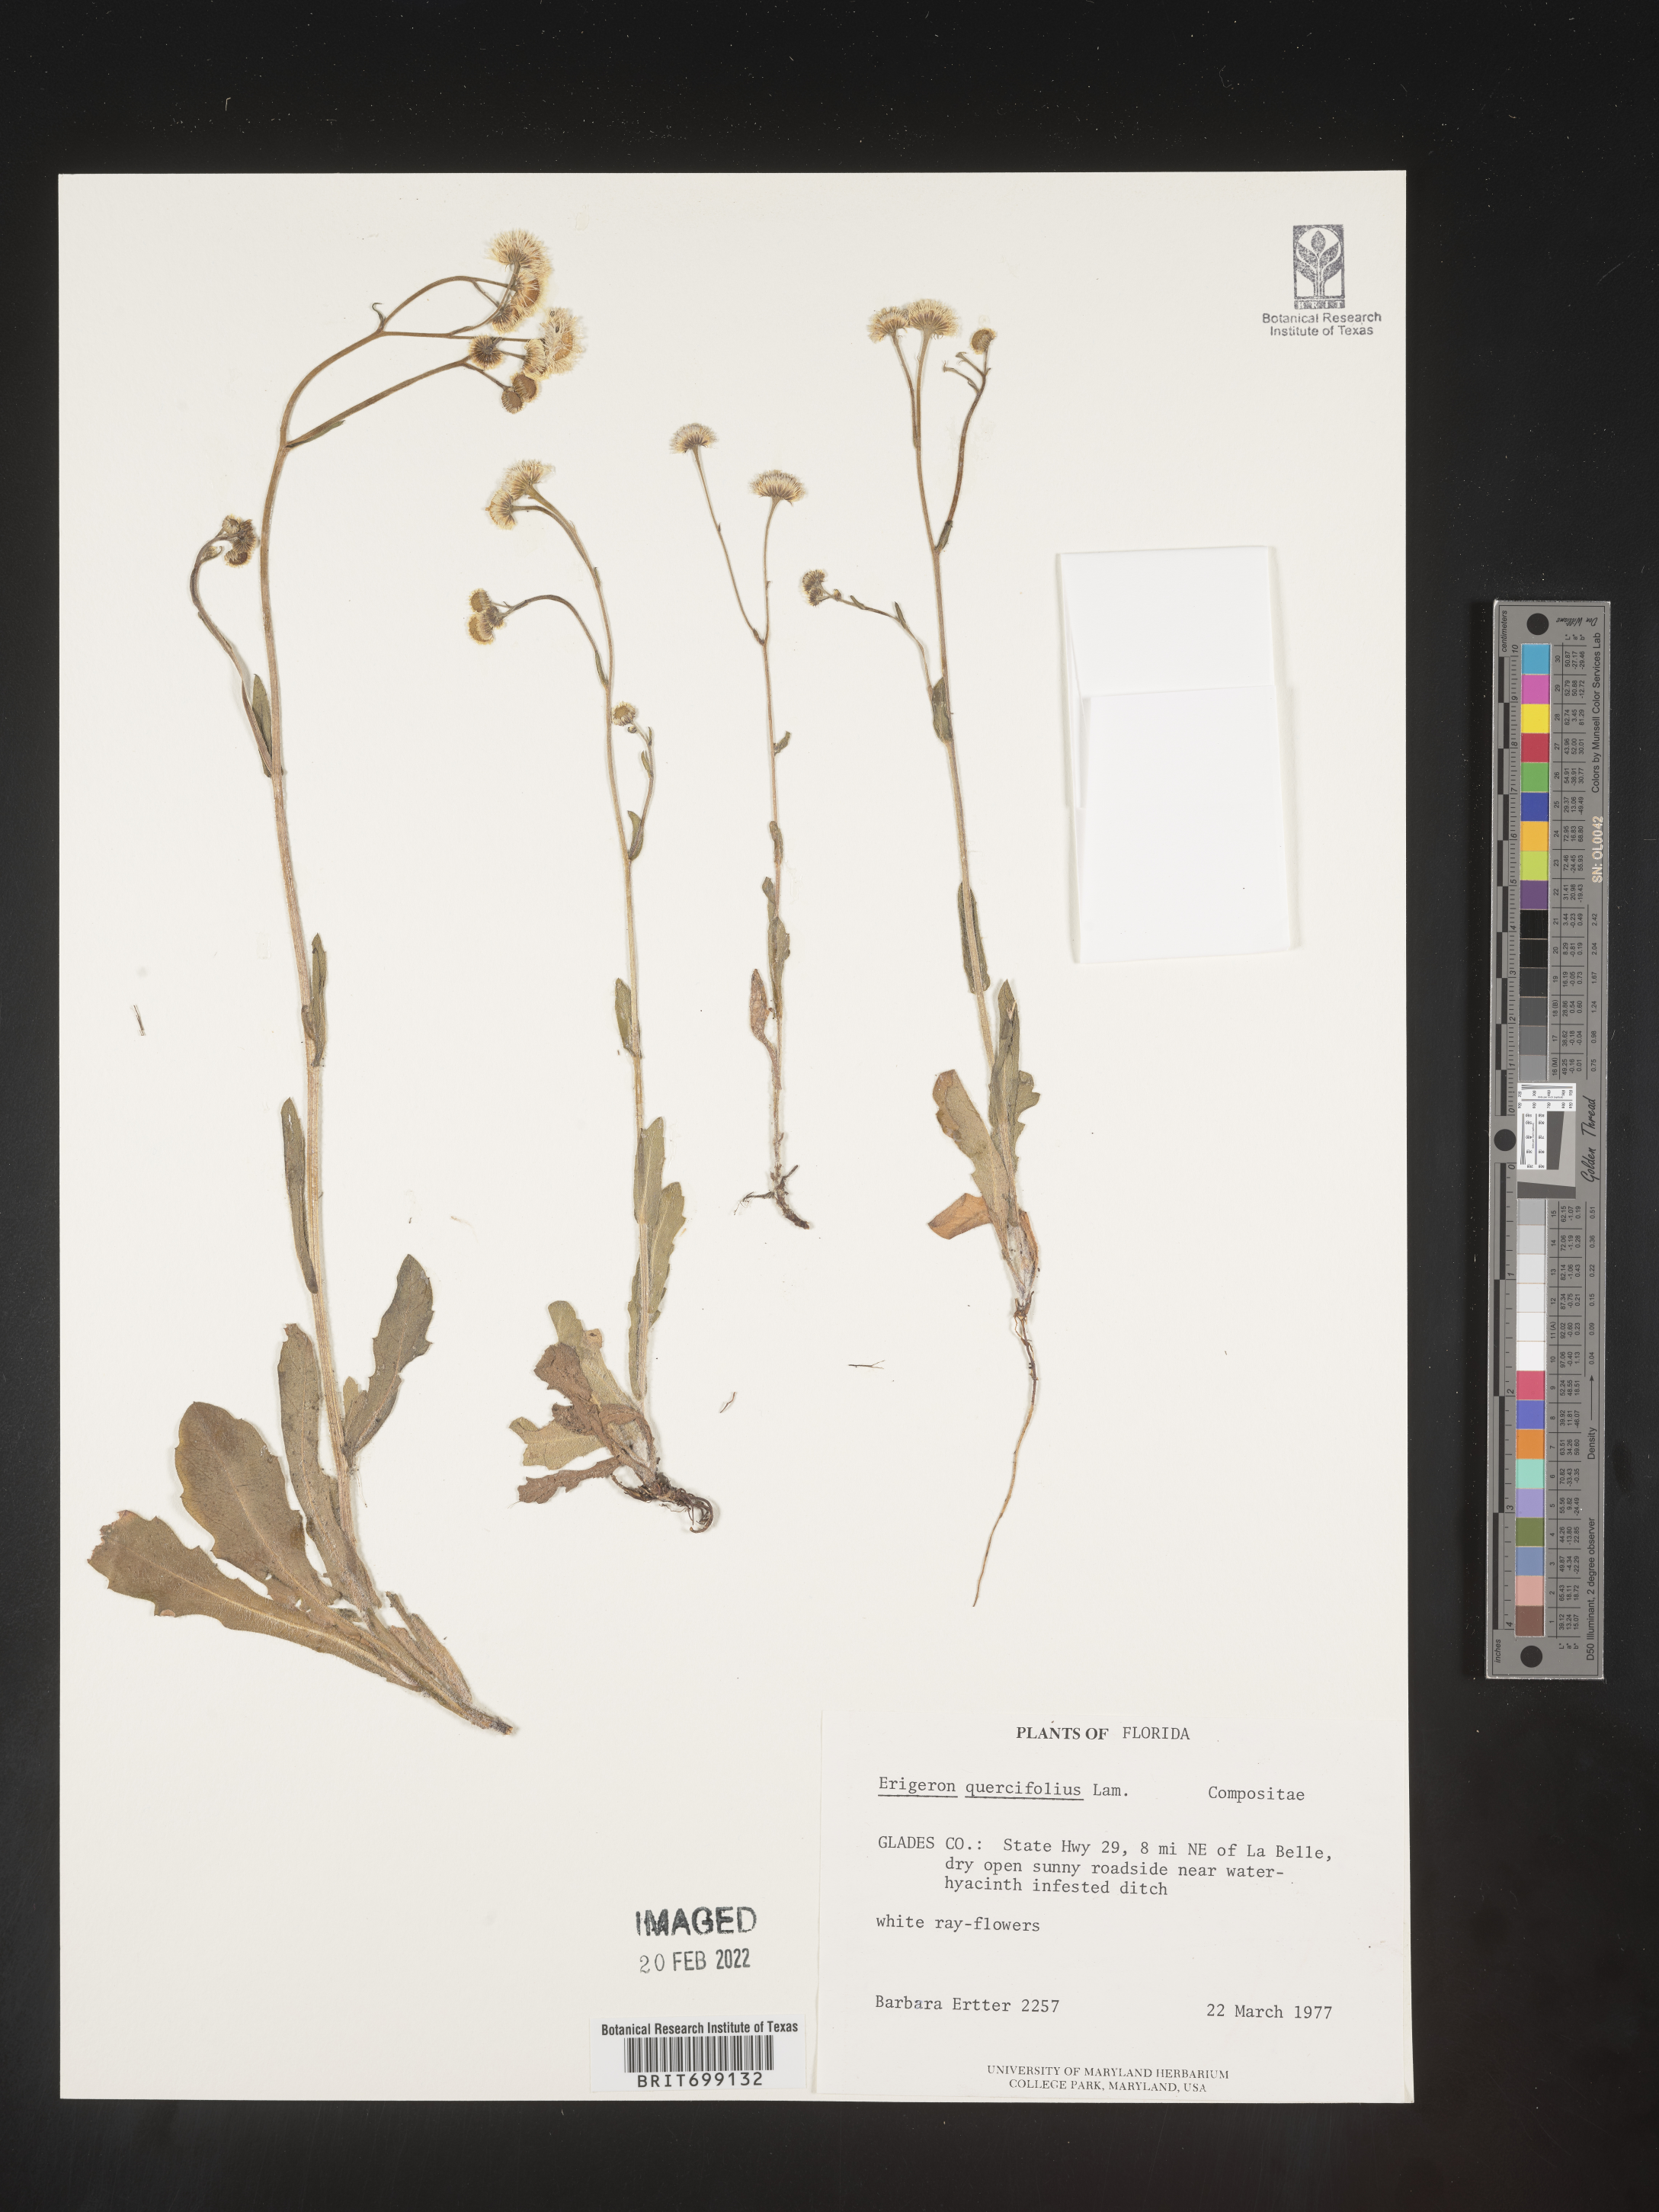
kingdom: Plantae
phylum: Tracheophyta
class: Magnoliopsida
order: Asterales
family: Asteraceae
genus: Erigeron
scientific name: Erigeron quercifolius
